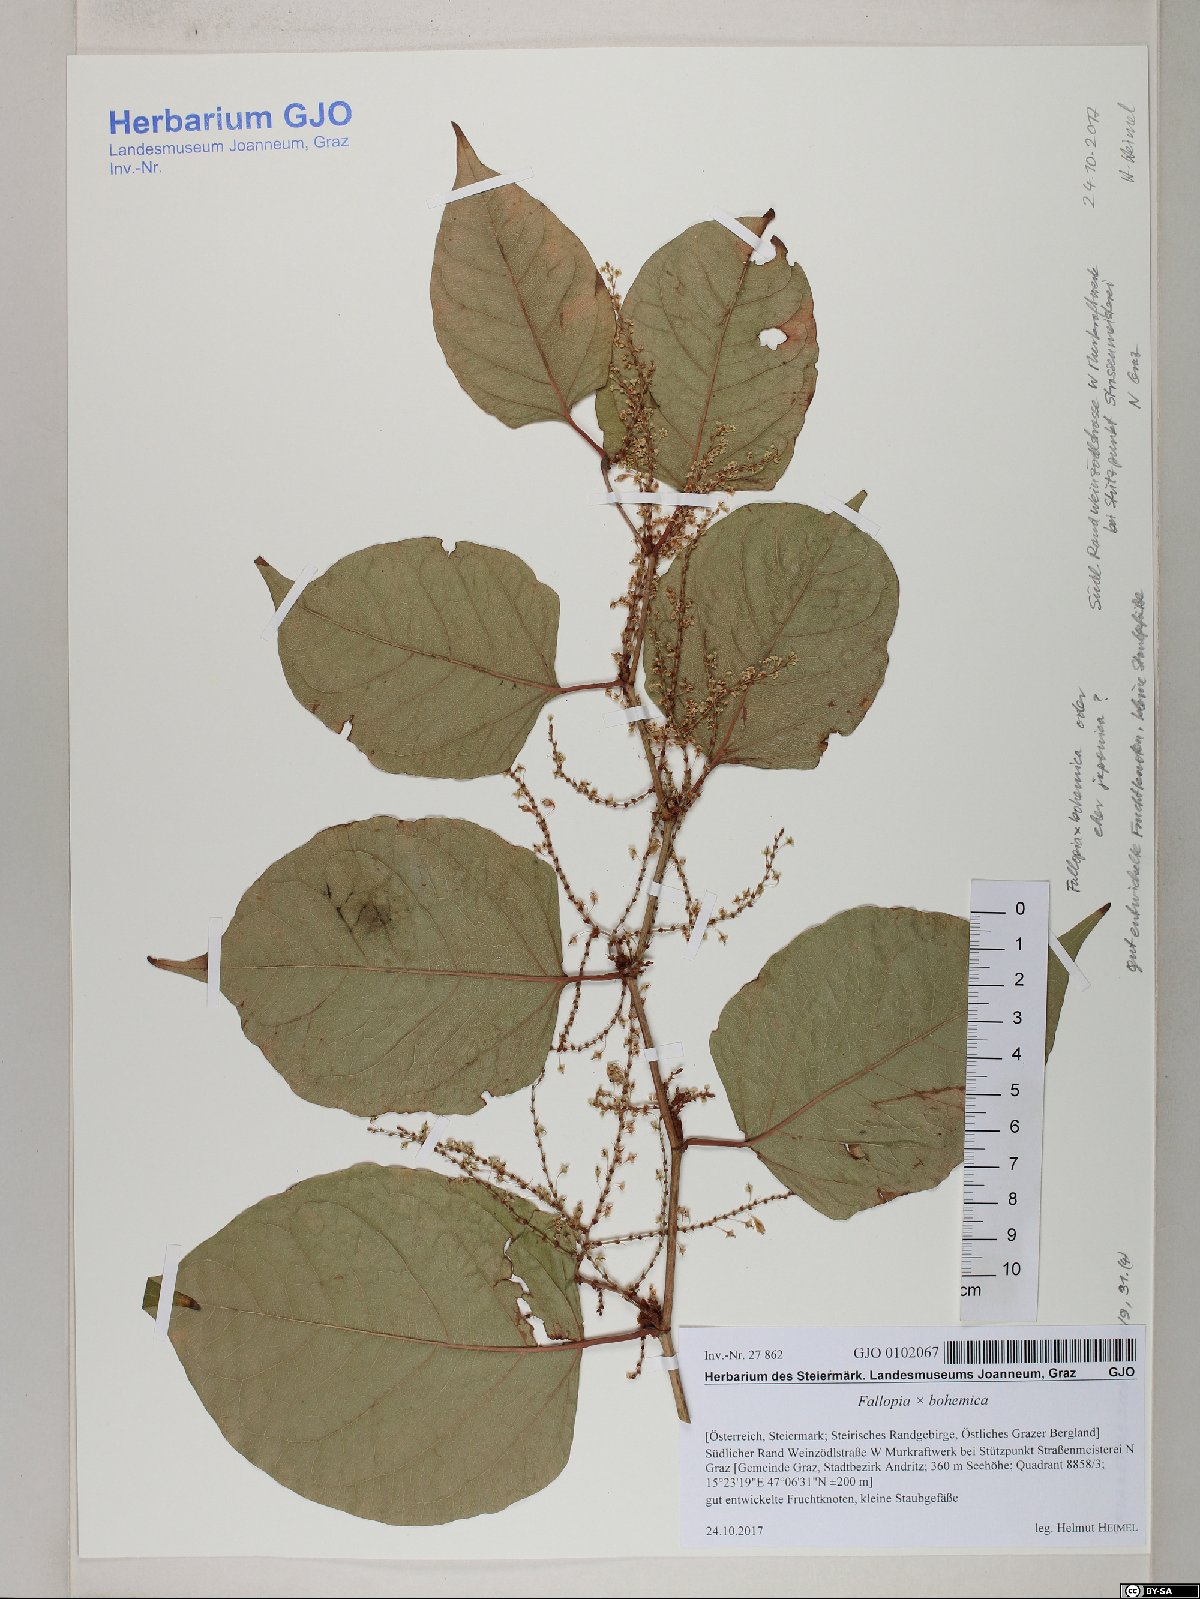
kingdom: Plantae
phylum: Tracheophyta
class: Magnoliopsida
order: Caryophyllales
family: Polygonaceae
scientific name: Polygonaceae
